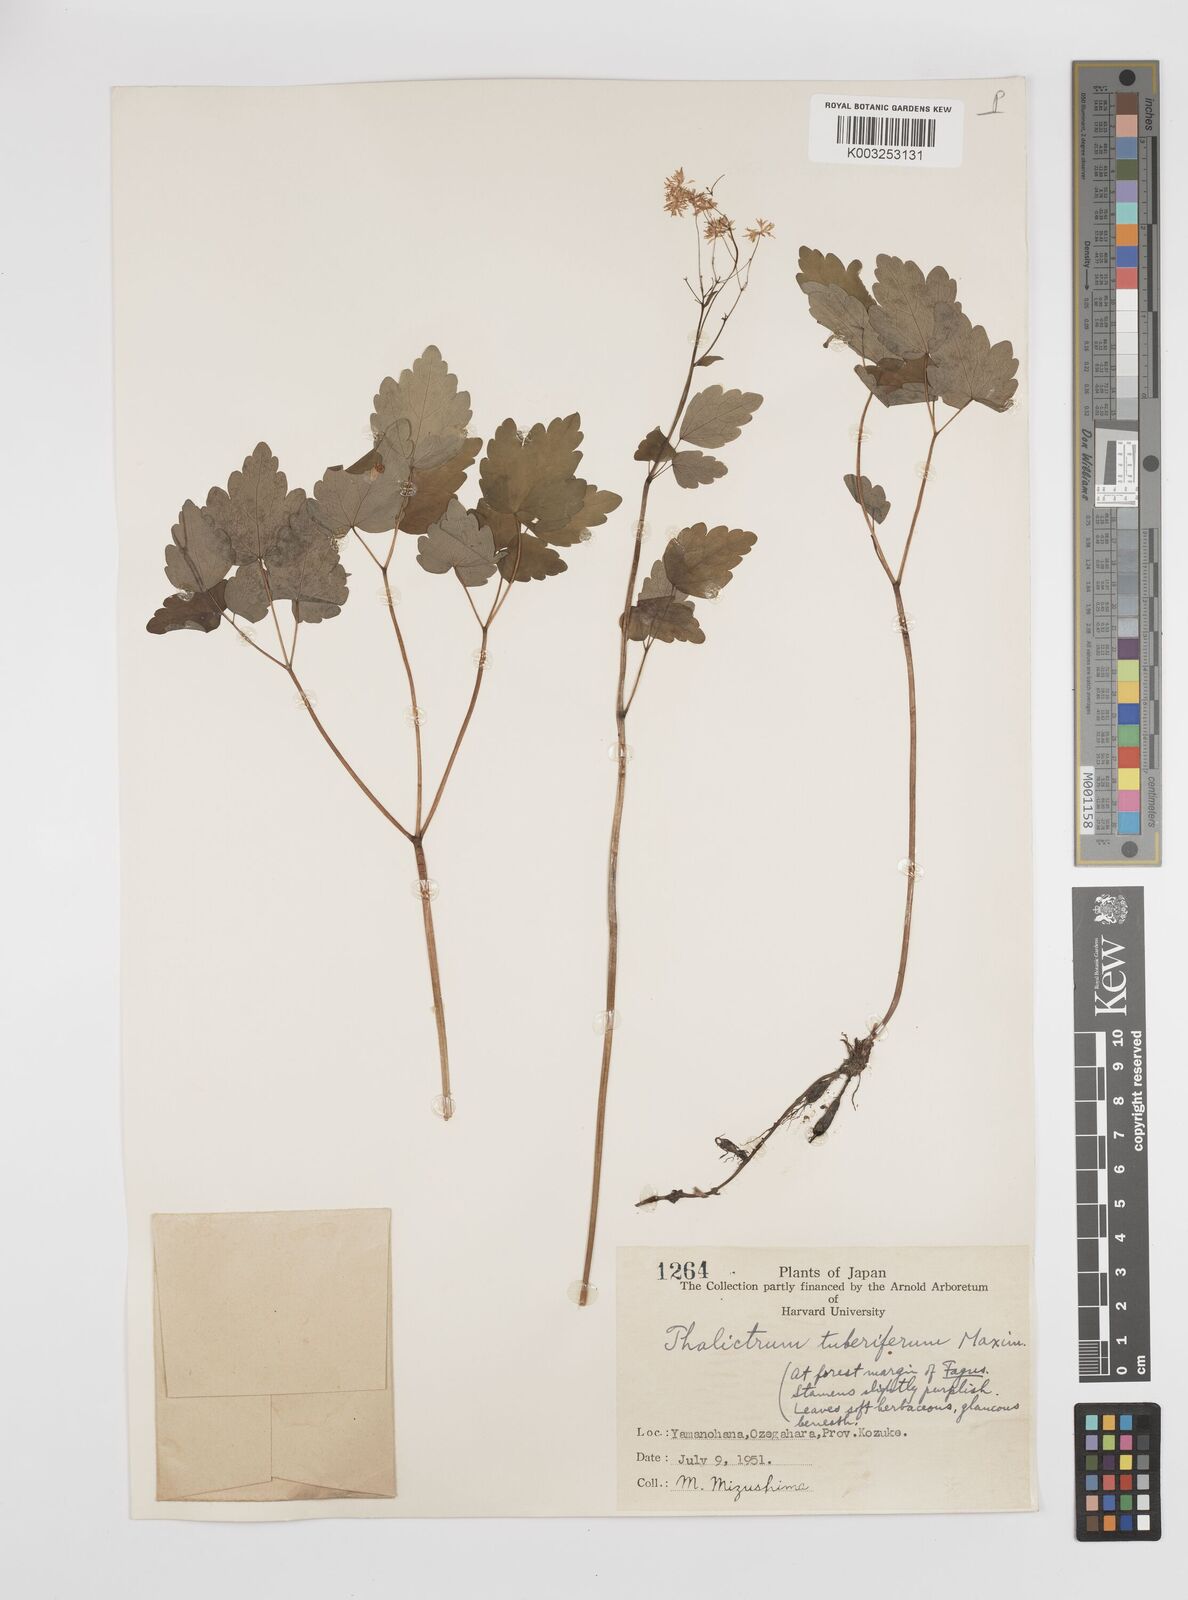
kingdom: Plantae
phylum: Tracheophyta
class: Magnoliopsida
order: Ranunculales
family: Ranunculaceae
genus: Thalictrum
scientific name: Thalictrum tuberiferum
